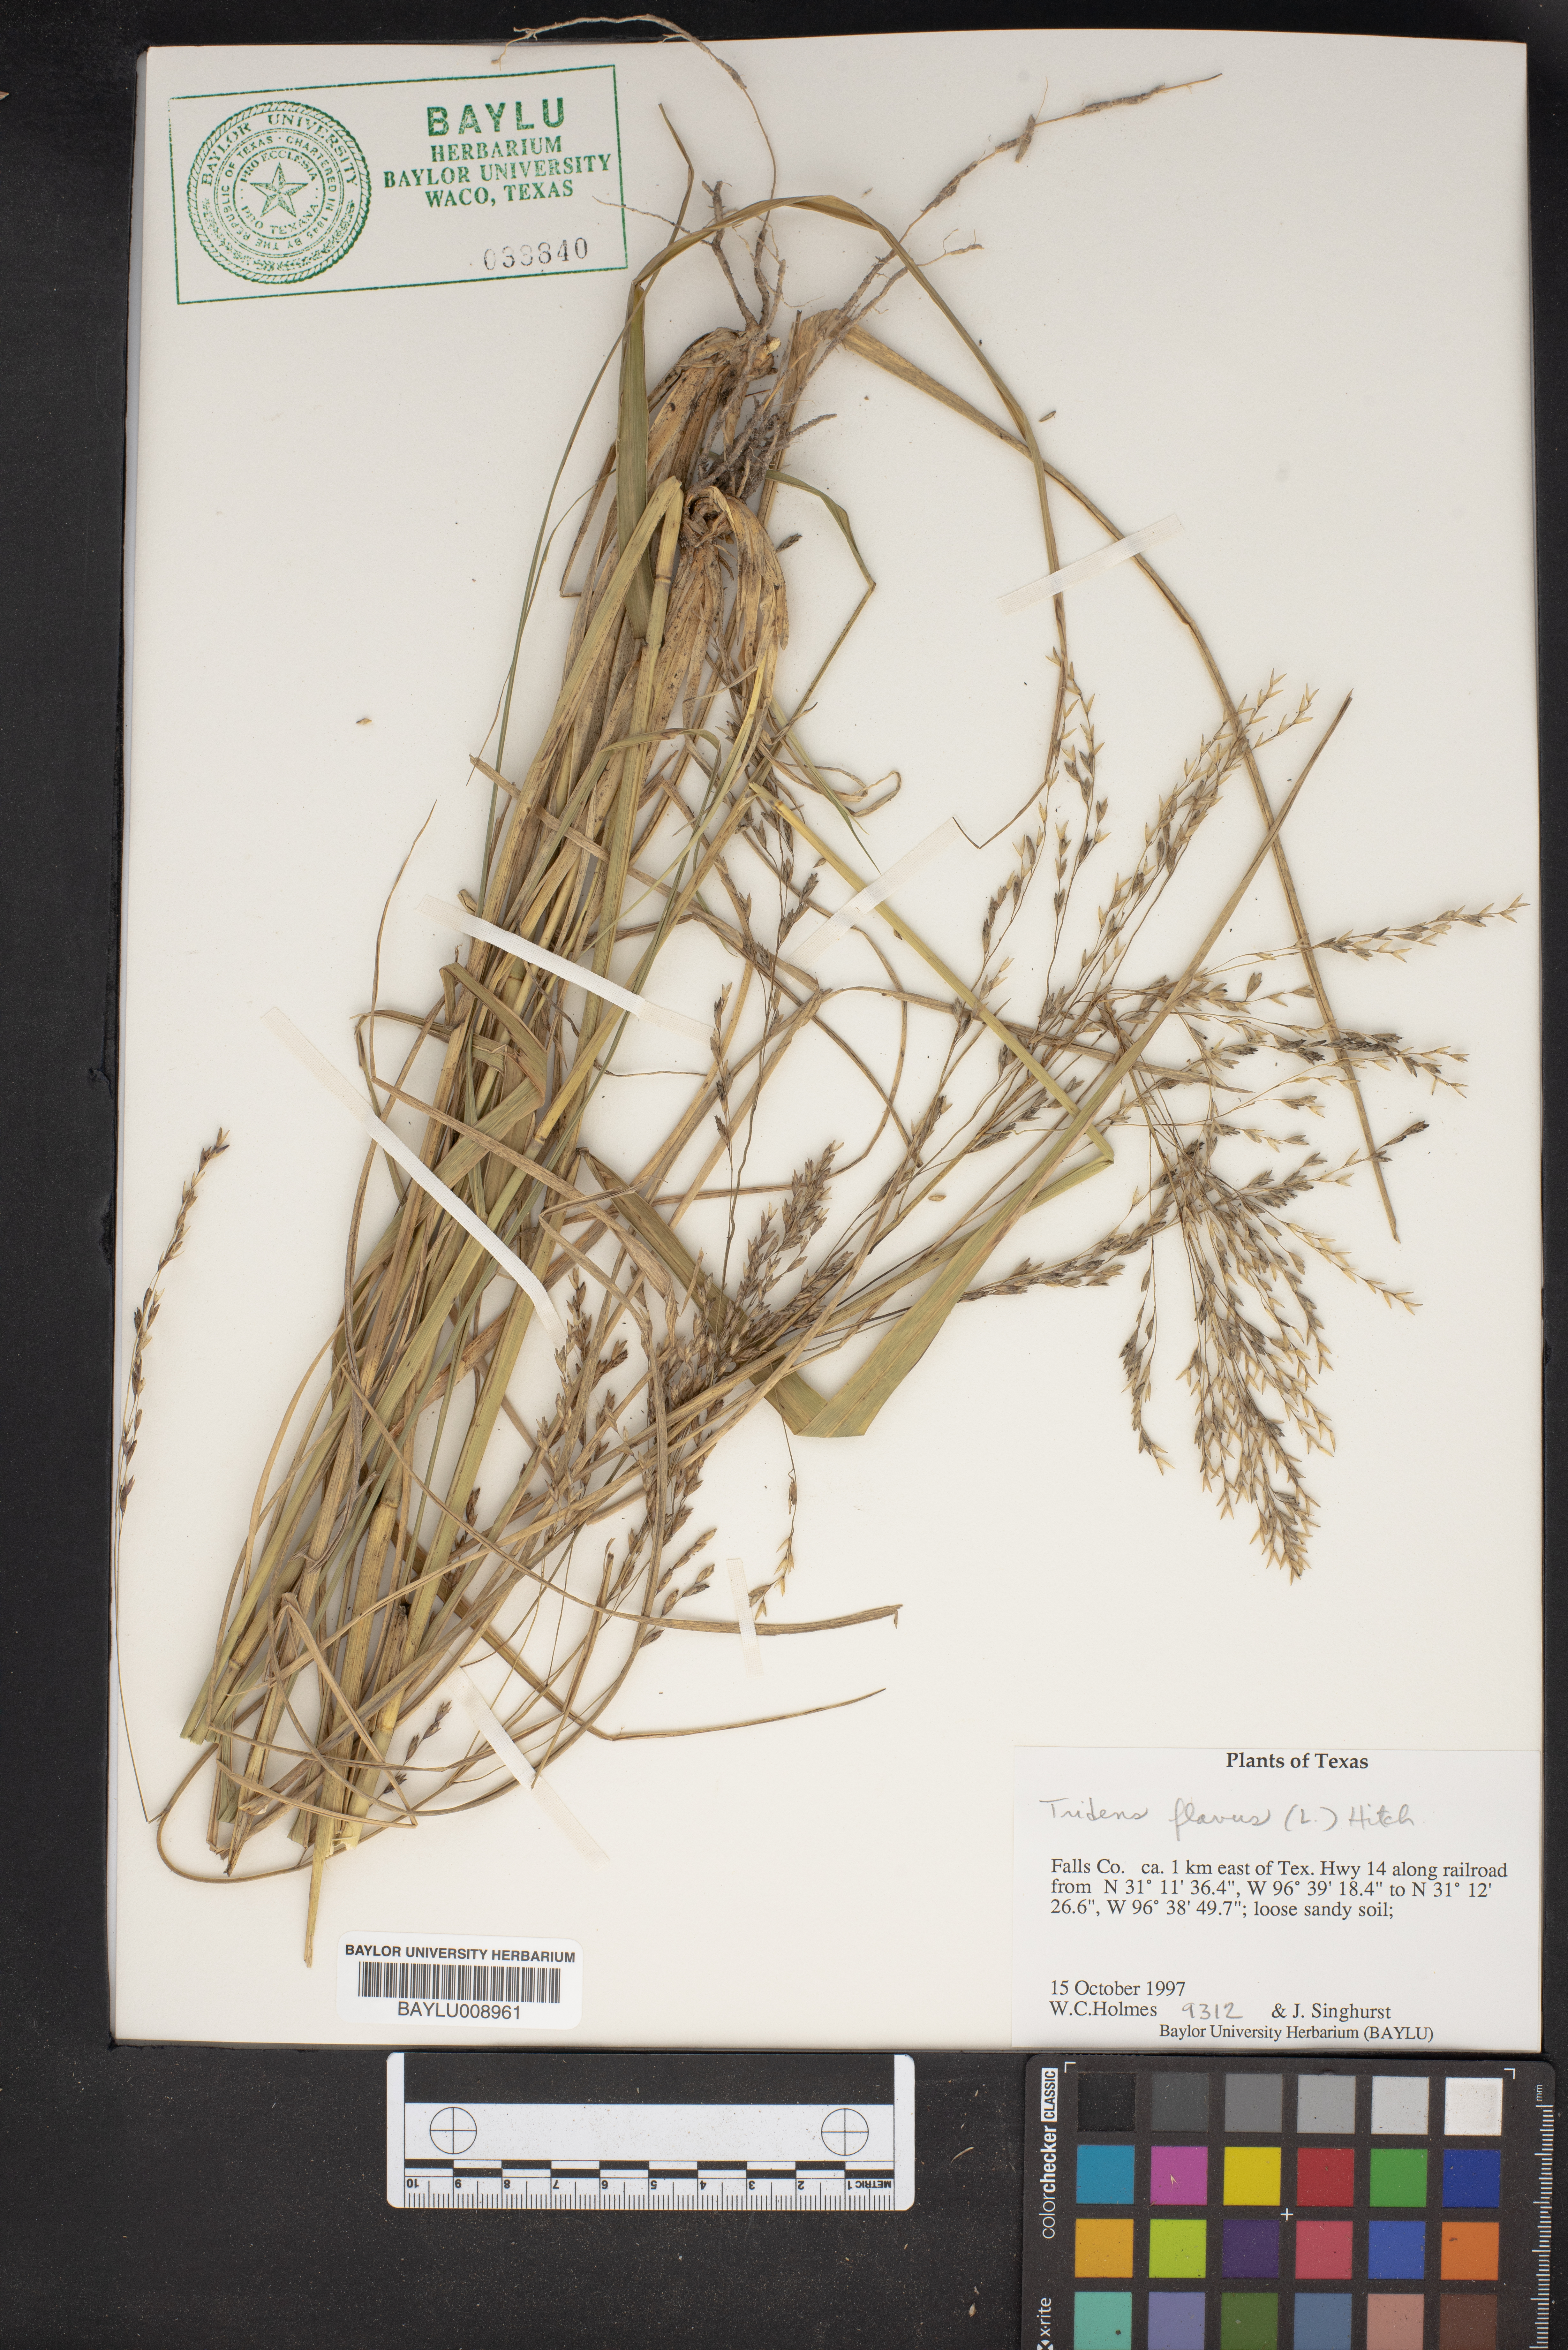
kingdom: Plantae
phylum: Tracheophyta
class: Liliopsida
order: Poales
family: Poaceae
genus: Tridens
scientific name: Tridens flavus
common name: Purpletop
